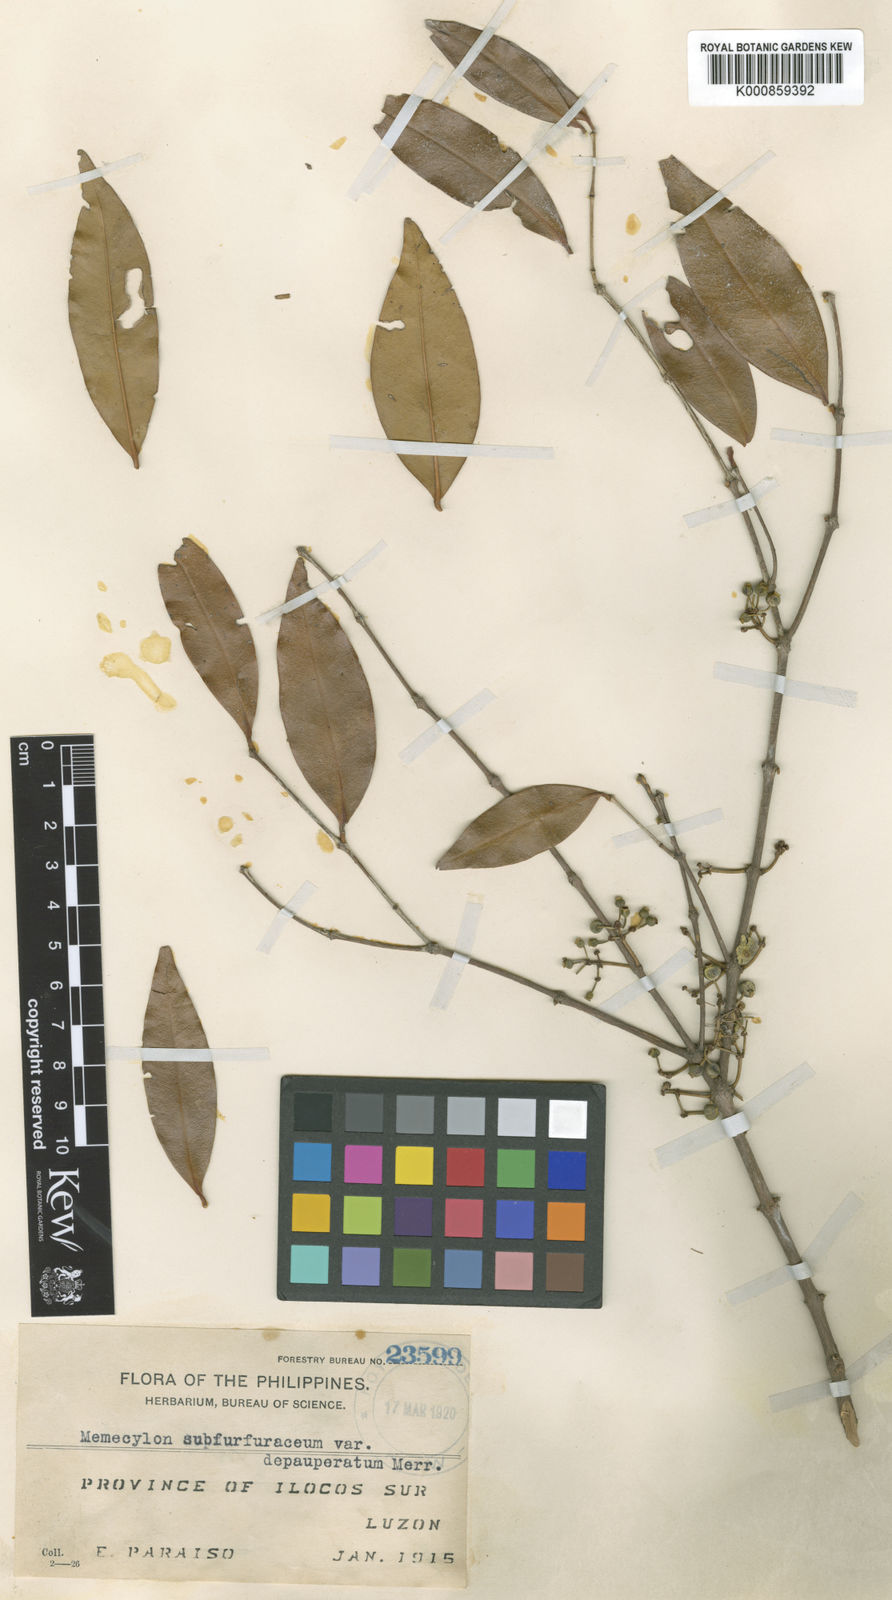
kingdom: Plantae
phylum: Tracheophyta
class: Magnoliopsida
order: Myrtales
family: Melastomataceae
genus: Memecylon
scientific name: Memecylon subfurfuraceum
